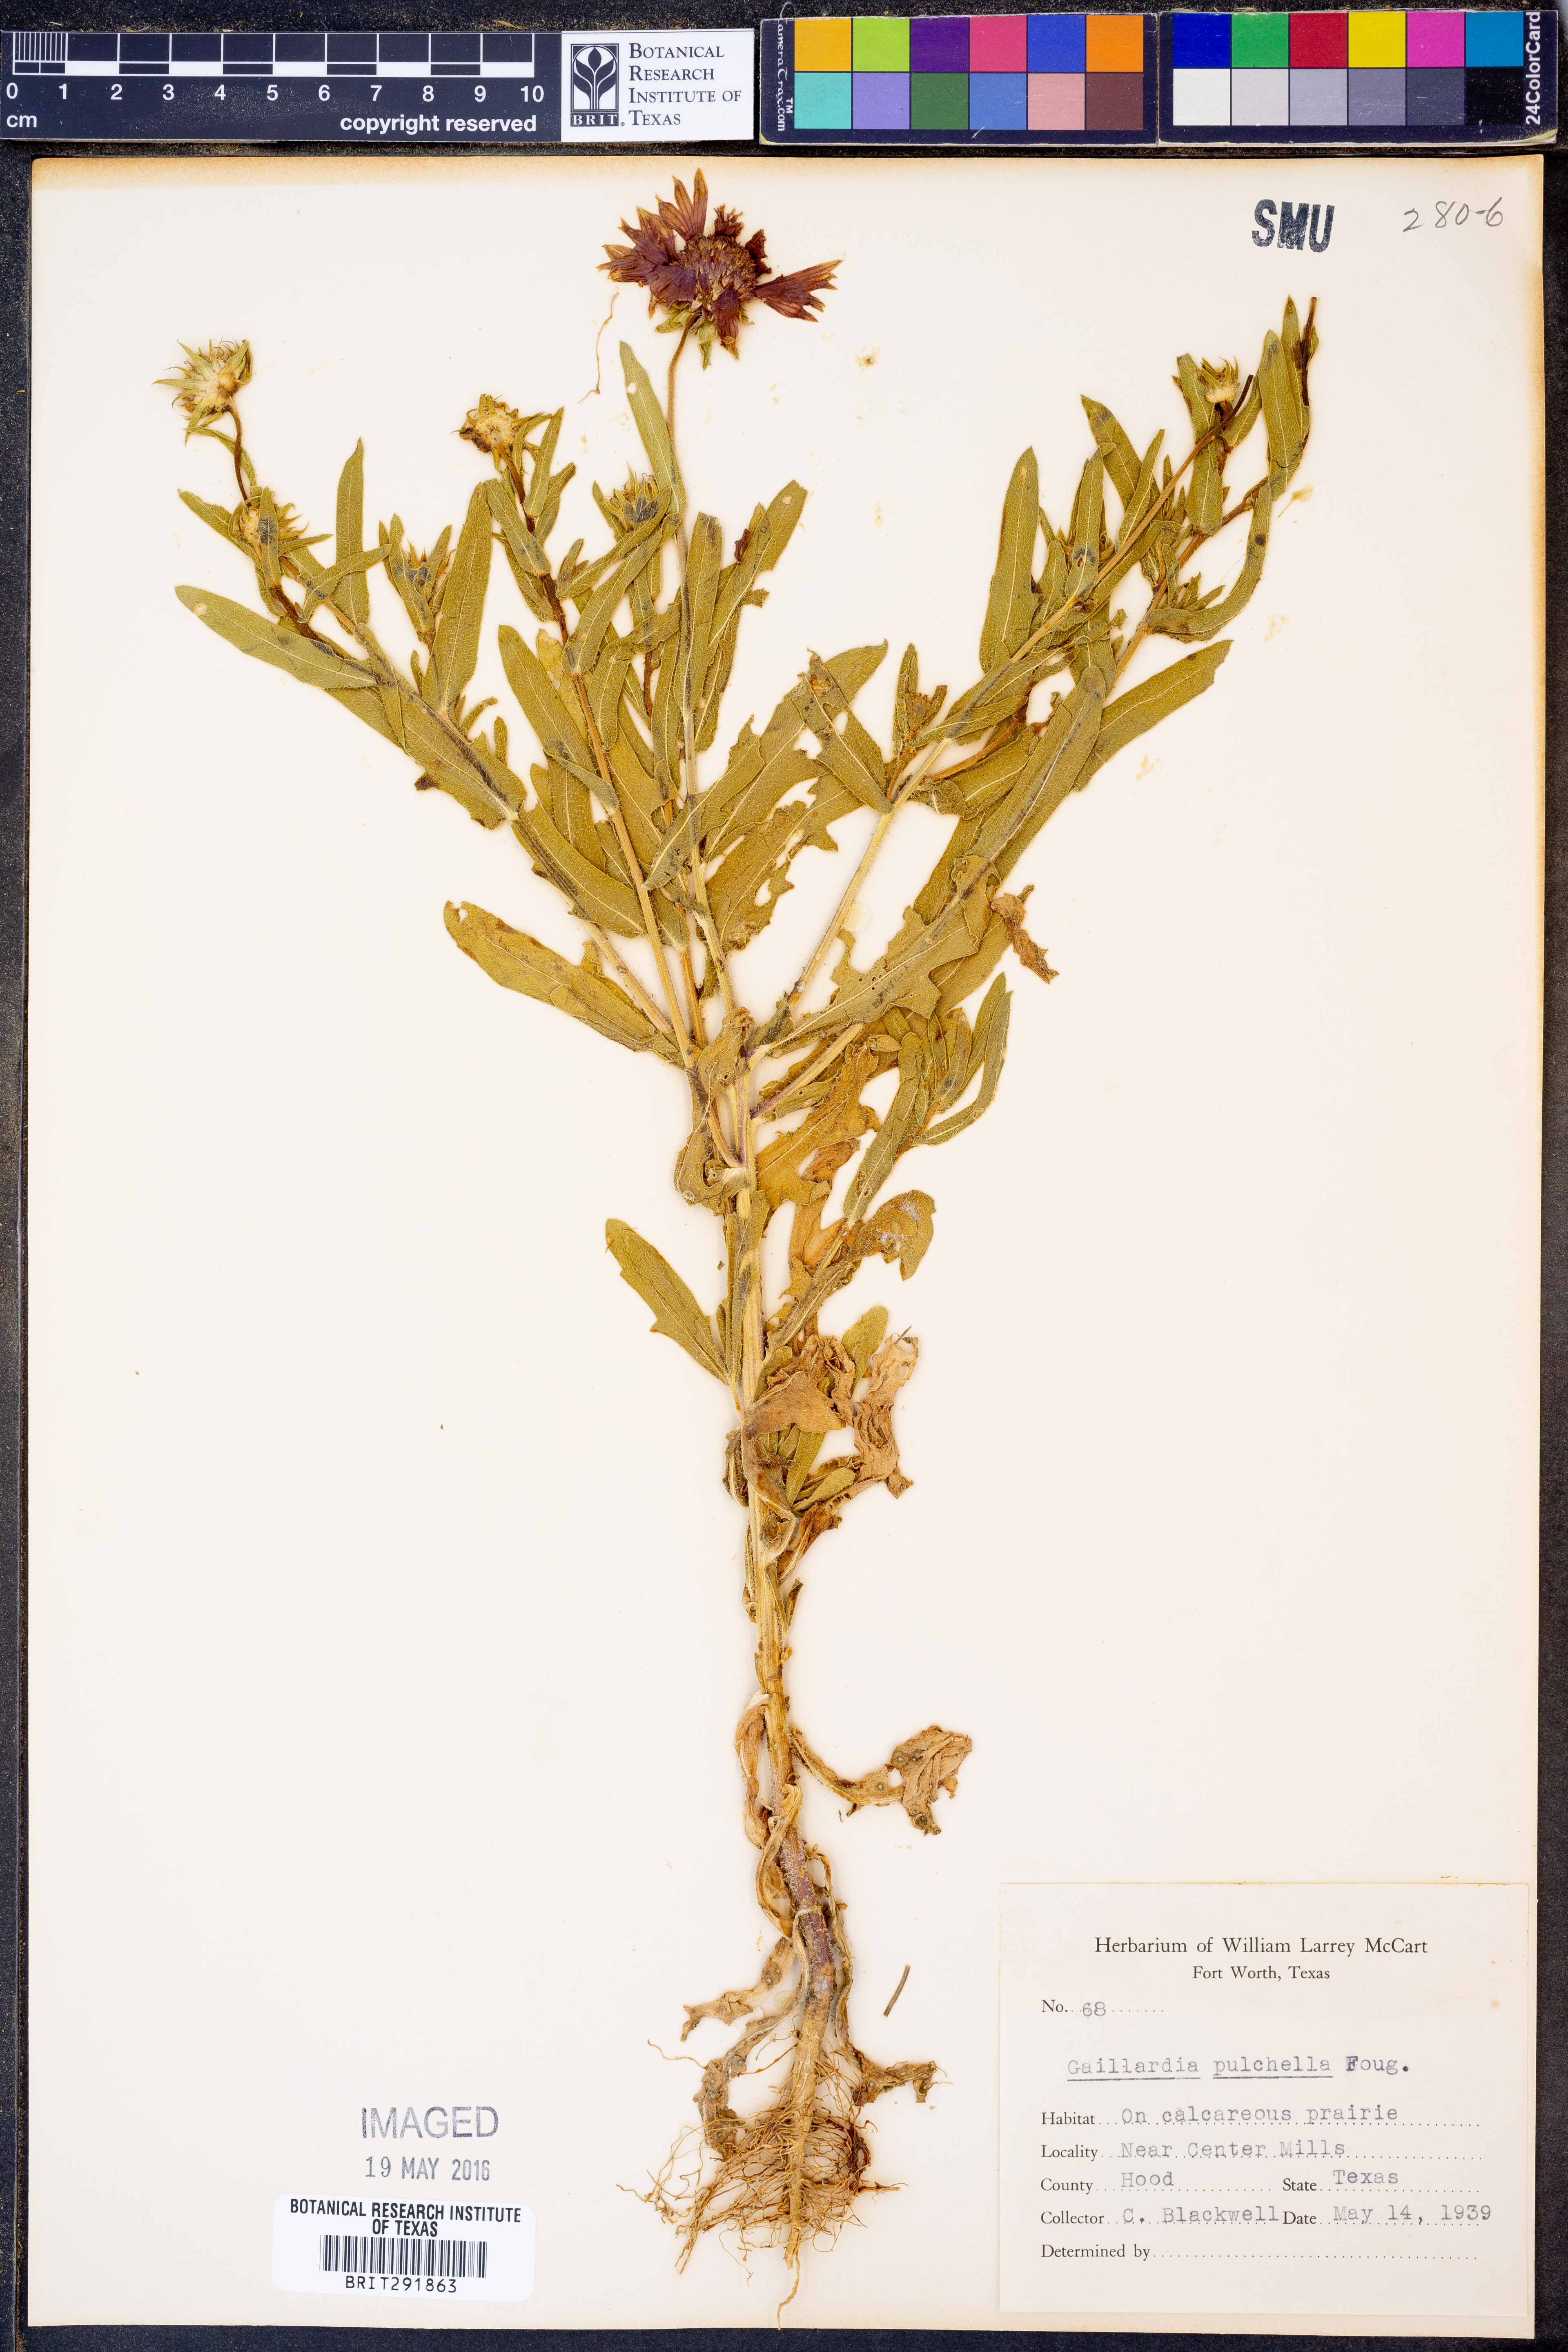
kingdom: Plantae
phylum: Tracheophyta
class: Magnoliopsida
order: Asterales
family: Asteraceae
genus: Gaillardia
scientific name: Gaillardia pulchella
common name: Firewheel
